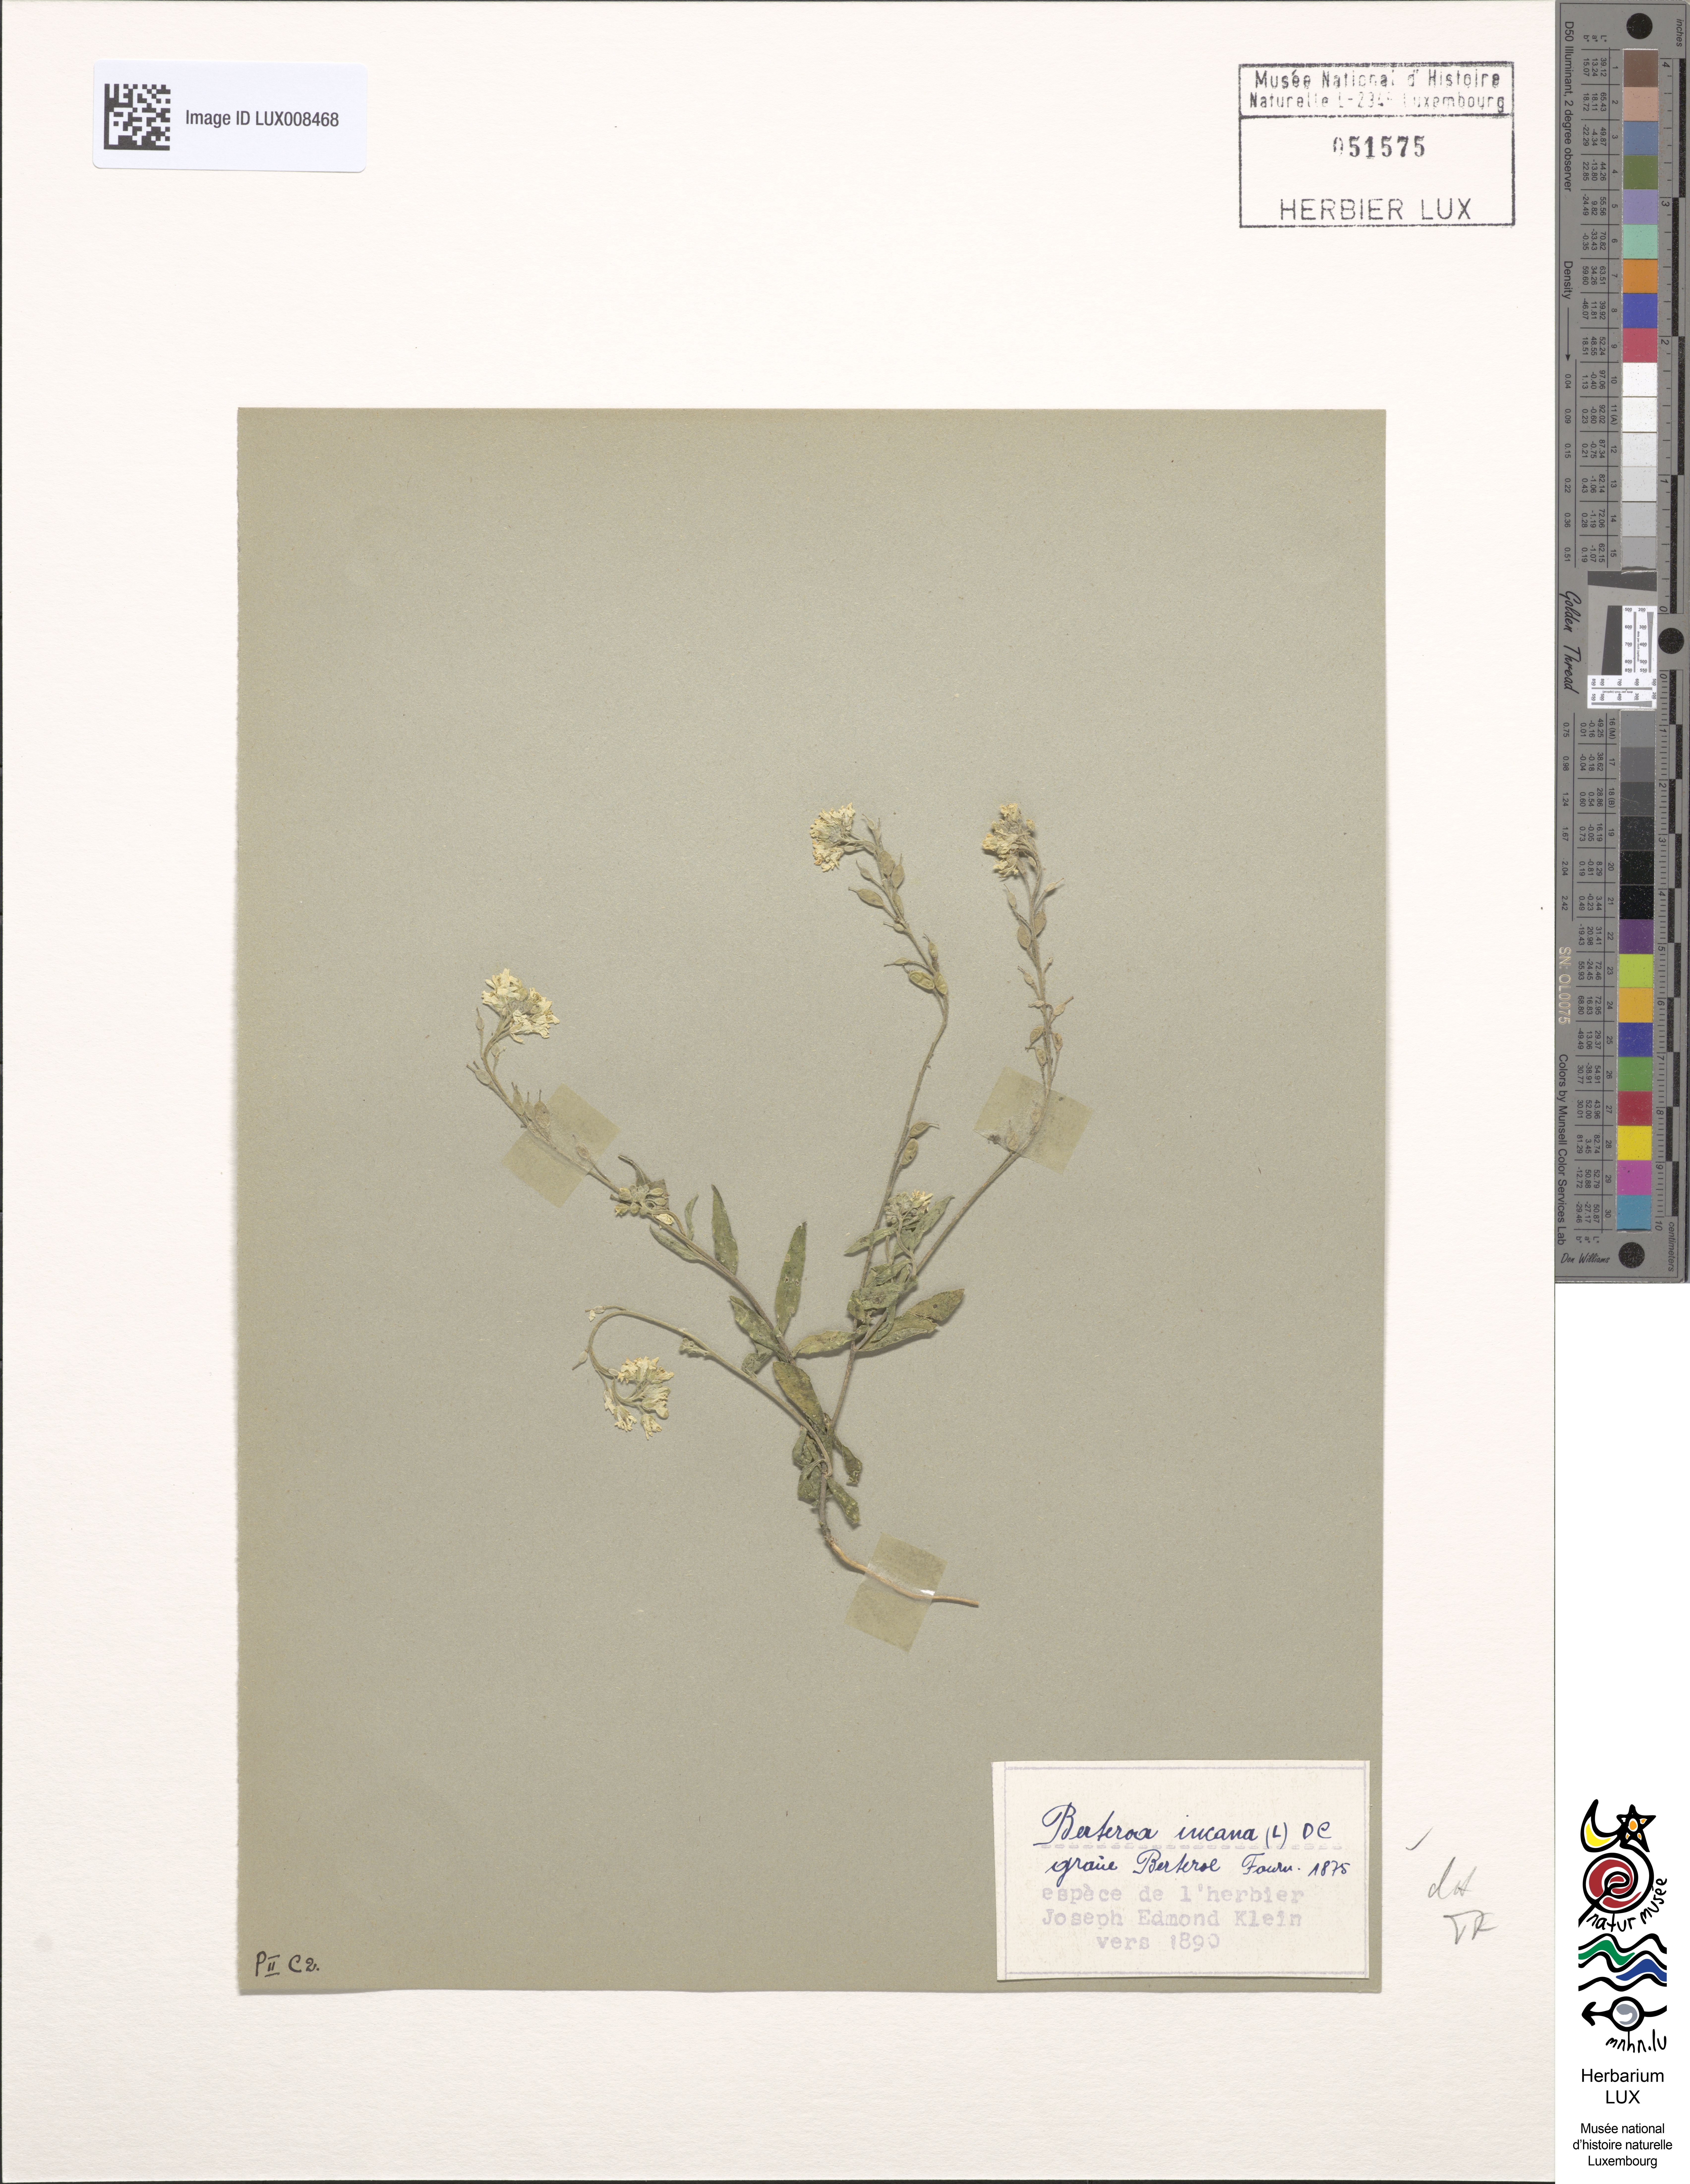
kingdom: Plantae
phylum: Tracheophyta
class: Magnoliopsida
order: Brassicales
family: Brassicaceae
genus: Berteroa
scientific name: Berteroa incana
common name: Hoary alison
